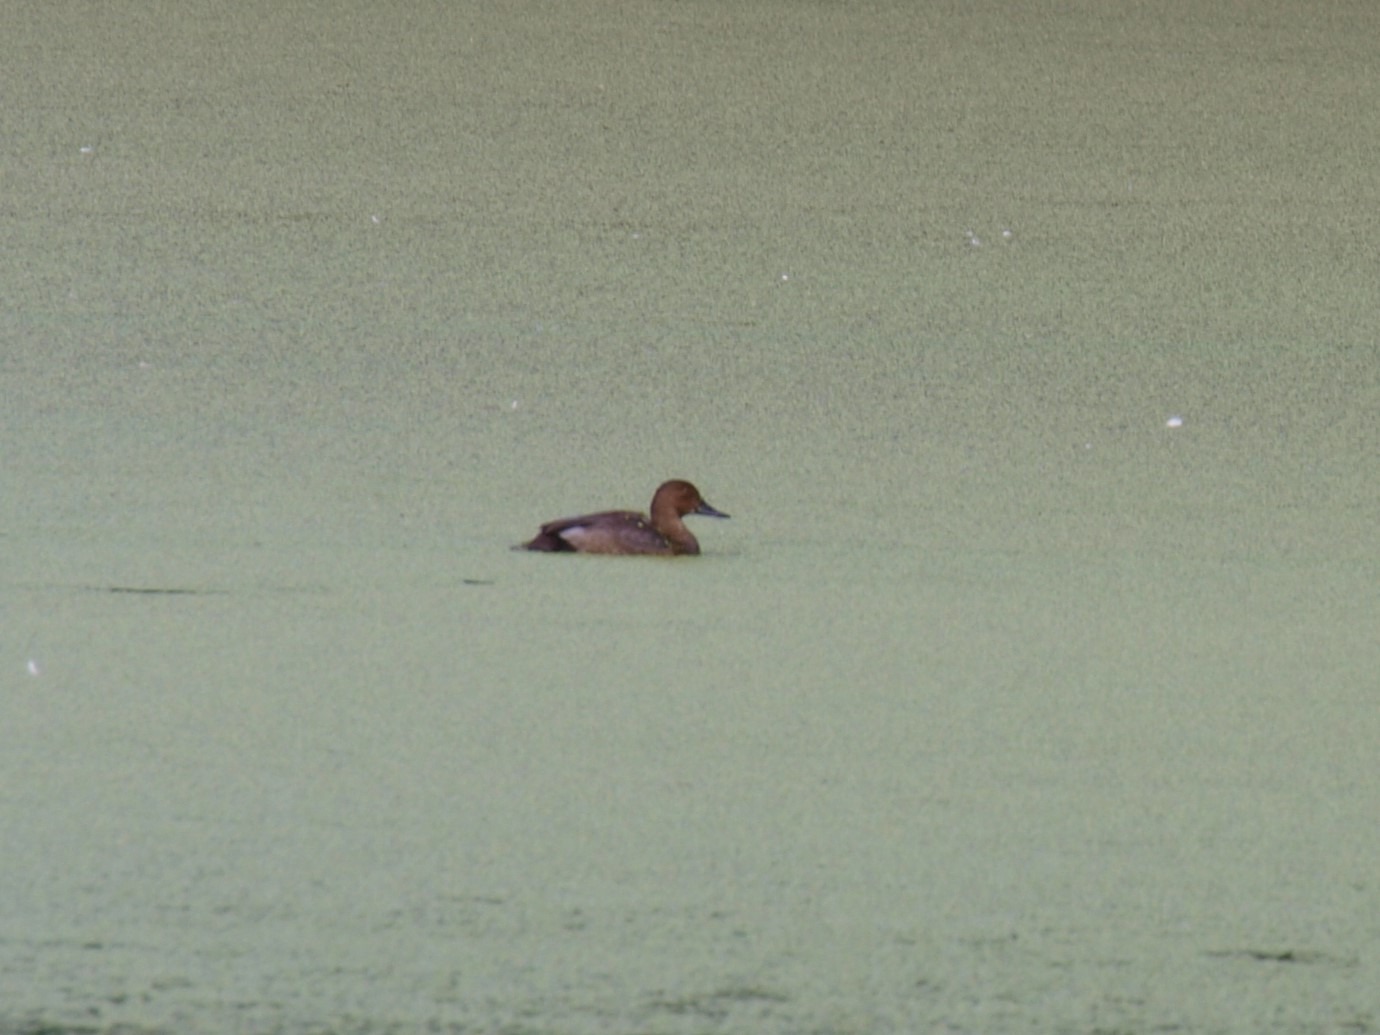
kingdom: Animalia
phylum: Chordata
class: Aves
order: Anseriformes
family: Anatidae
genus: Aythya
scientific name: Aythya ferina
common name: Taffeland
